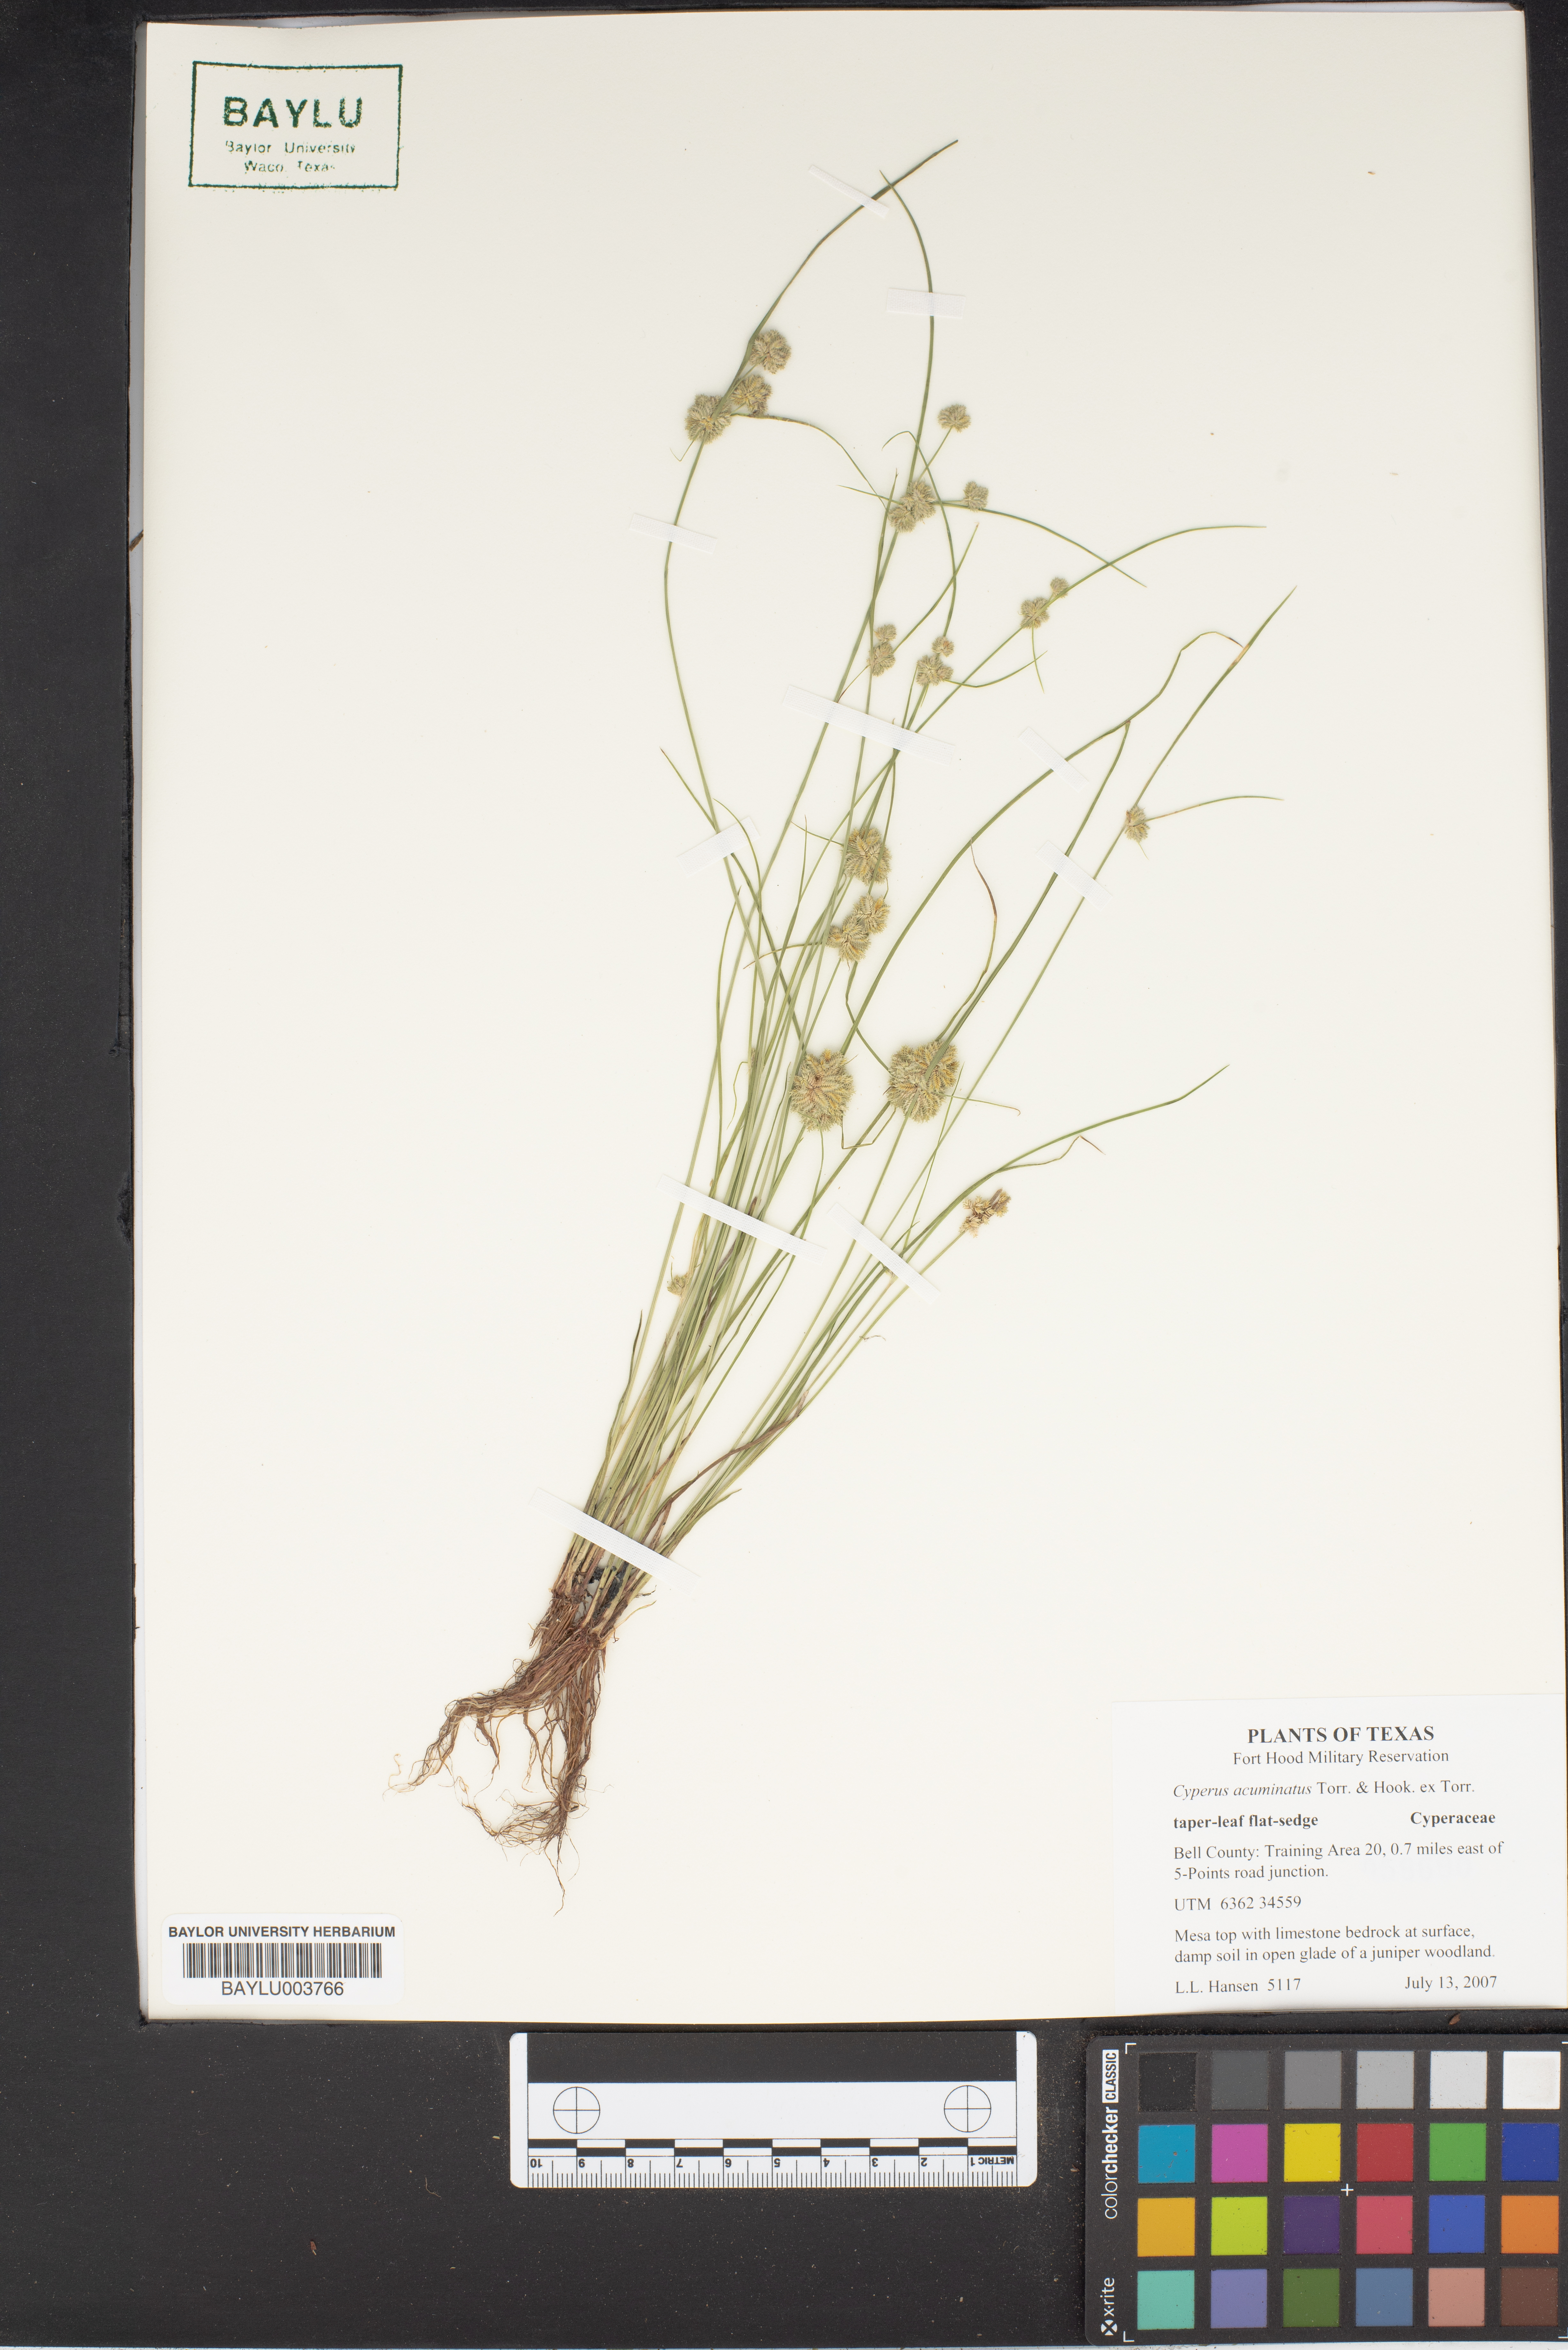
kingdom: Plantae
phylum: Tracheophyta
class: Liliopsida
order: Poales
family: Cyperaceae
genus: Cyperus
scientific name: Cyperus acuminatus
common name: Short-pointed cyperus
